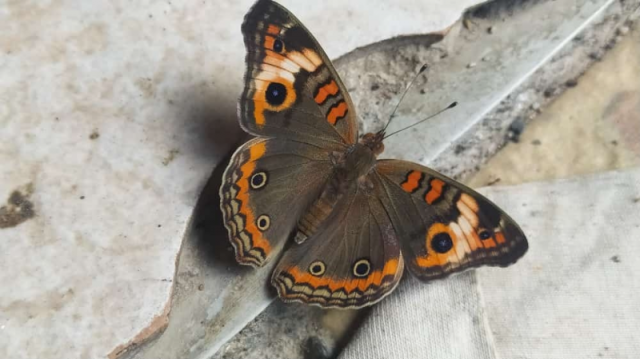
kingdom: Animalia
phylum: Arthropoda
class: Insecta
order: Lepidoptera
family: Nymphalidae
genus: Junonia
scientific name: Junonia lavinia
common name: Tropical Buckeye
